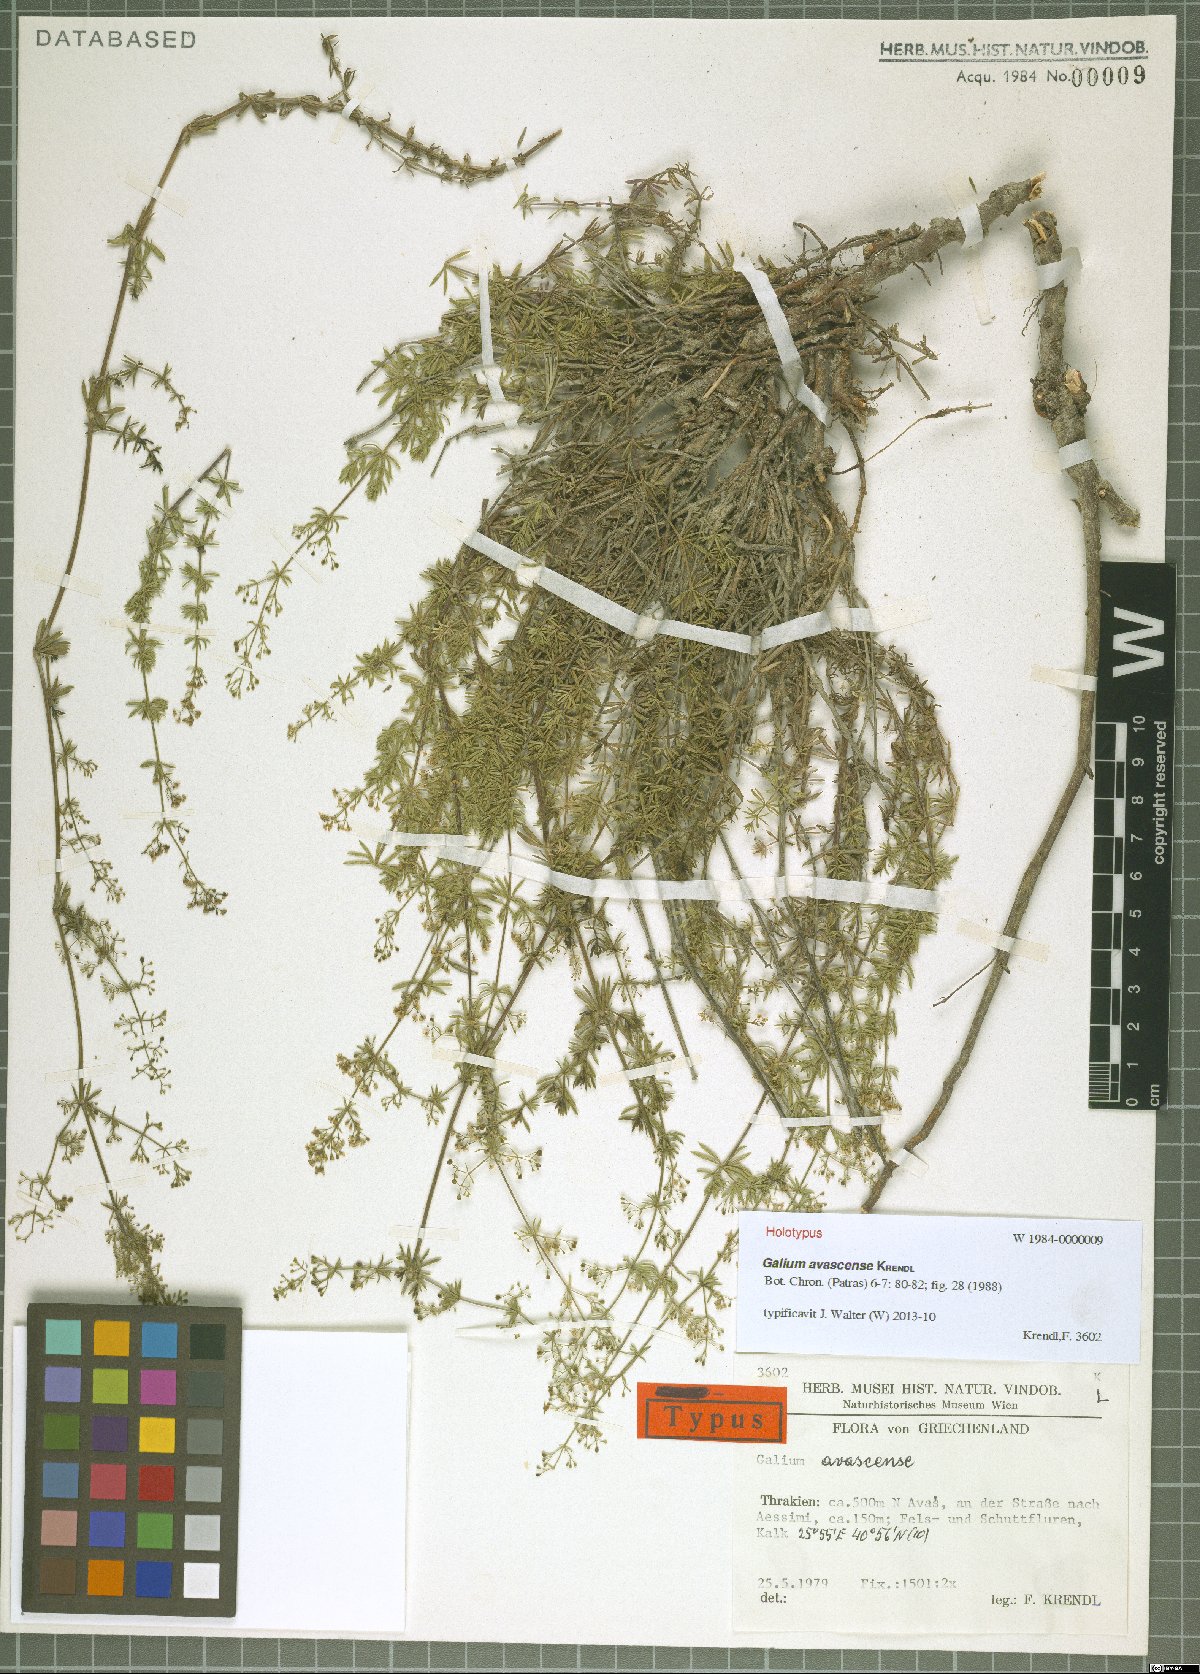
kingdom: Plantae
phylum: Tracheophyta
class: Magnoliopsida
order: Gentianales
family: Rubiaceae
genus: Galium
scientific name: Galium avascense
